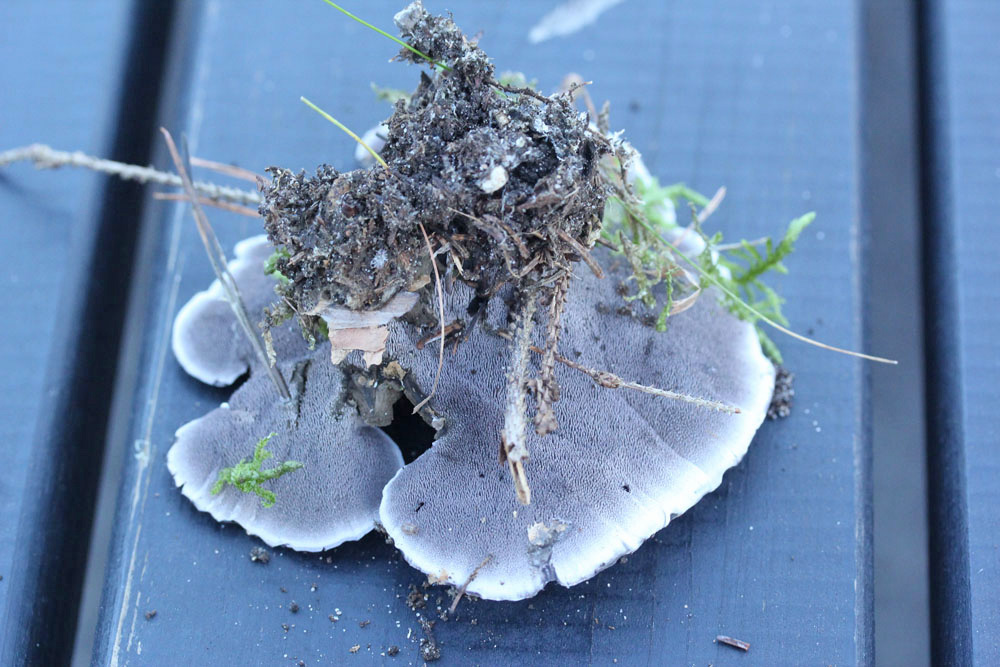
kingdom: Fungi
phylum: Basidiomycota
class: Agaricomycetes
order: Thelephorales
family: Thelephoraceae
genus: Phellodon
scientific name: Phellodon
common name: mørk duftpigsvamp
